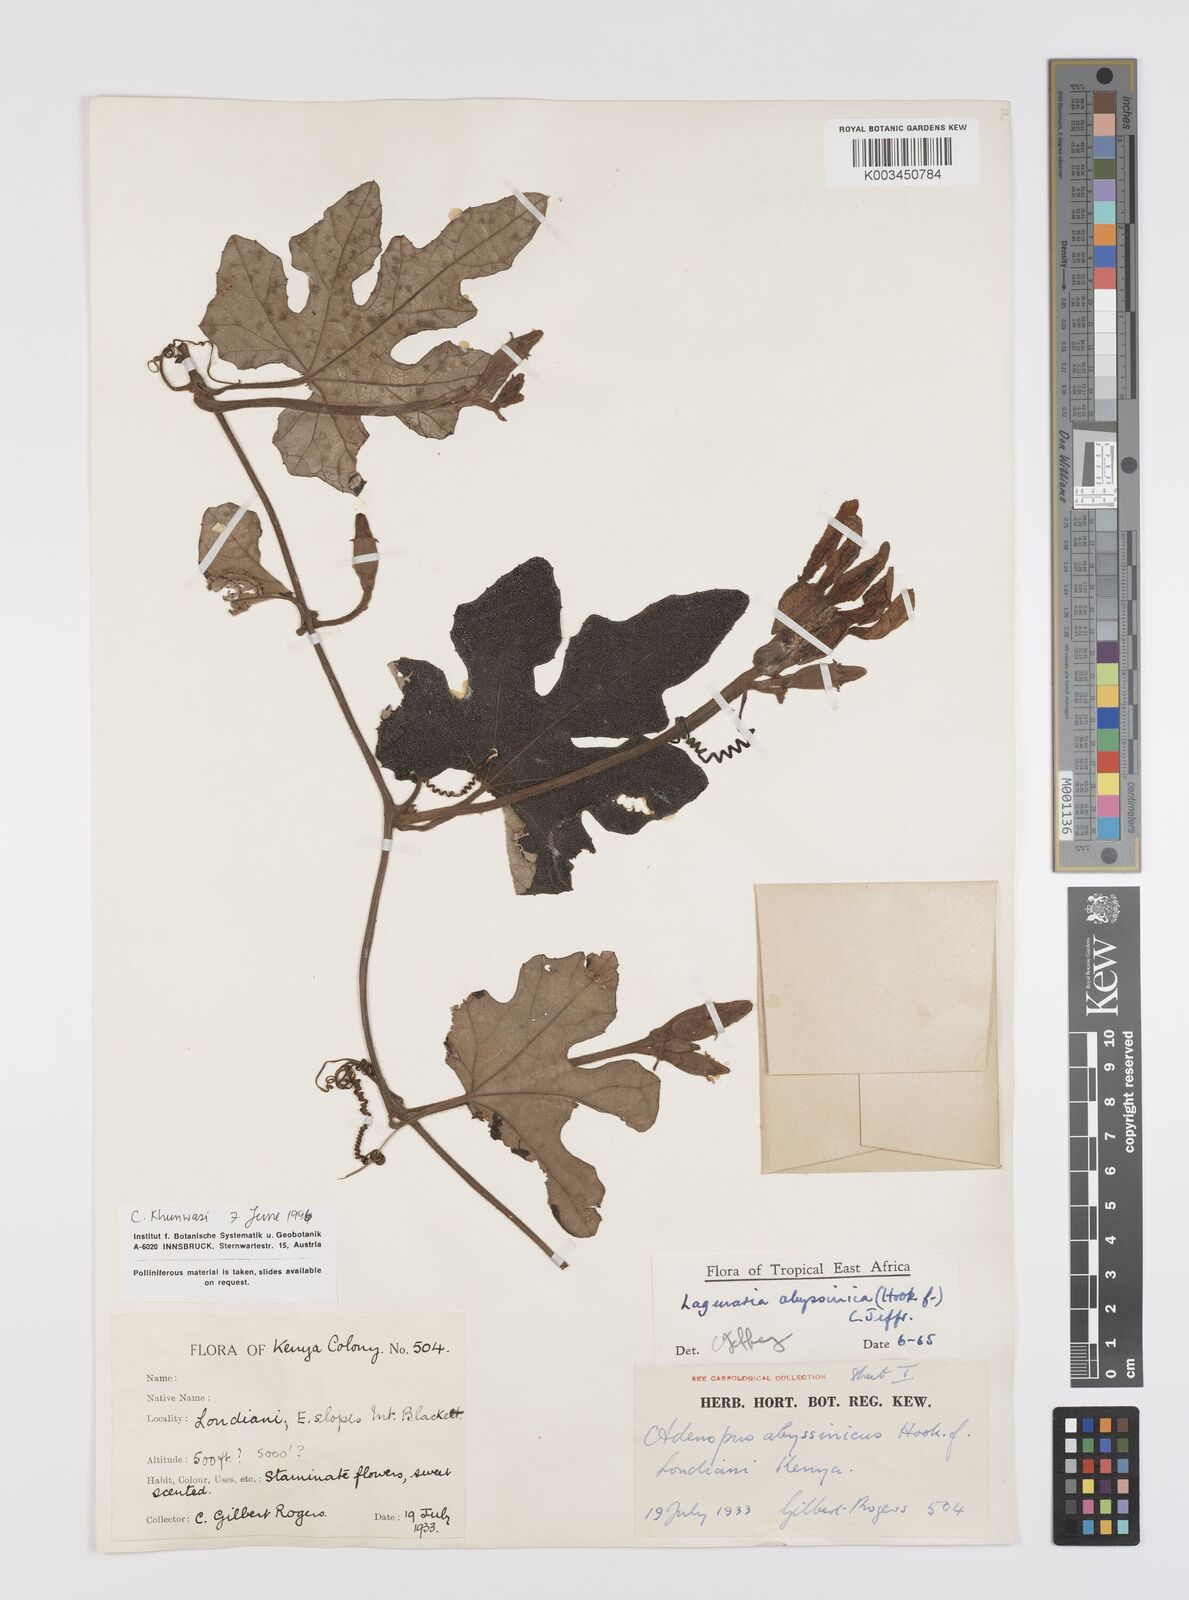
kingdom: Plantae
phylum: Tracheophyta
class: Magnoliopsida
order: Cucurbitales
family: Cucurbitaceae
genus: Lagenaria
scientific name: Lagenaria abyssinica
